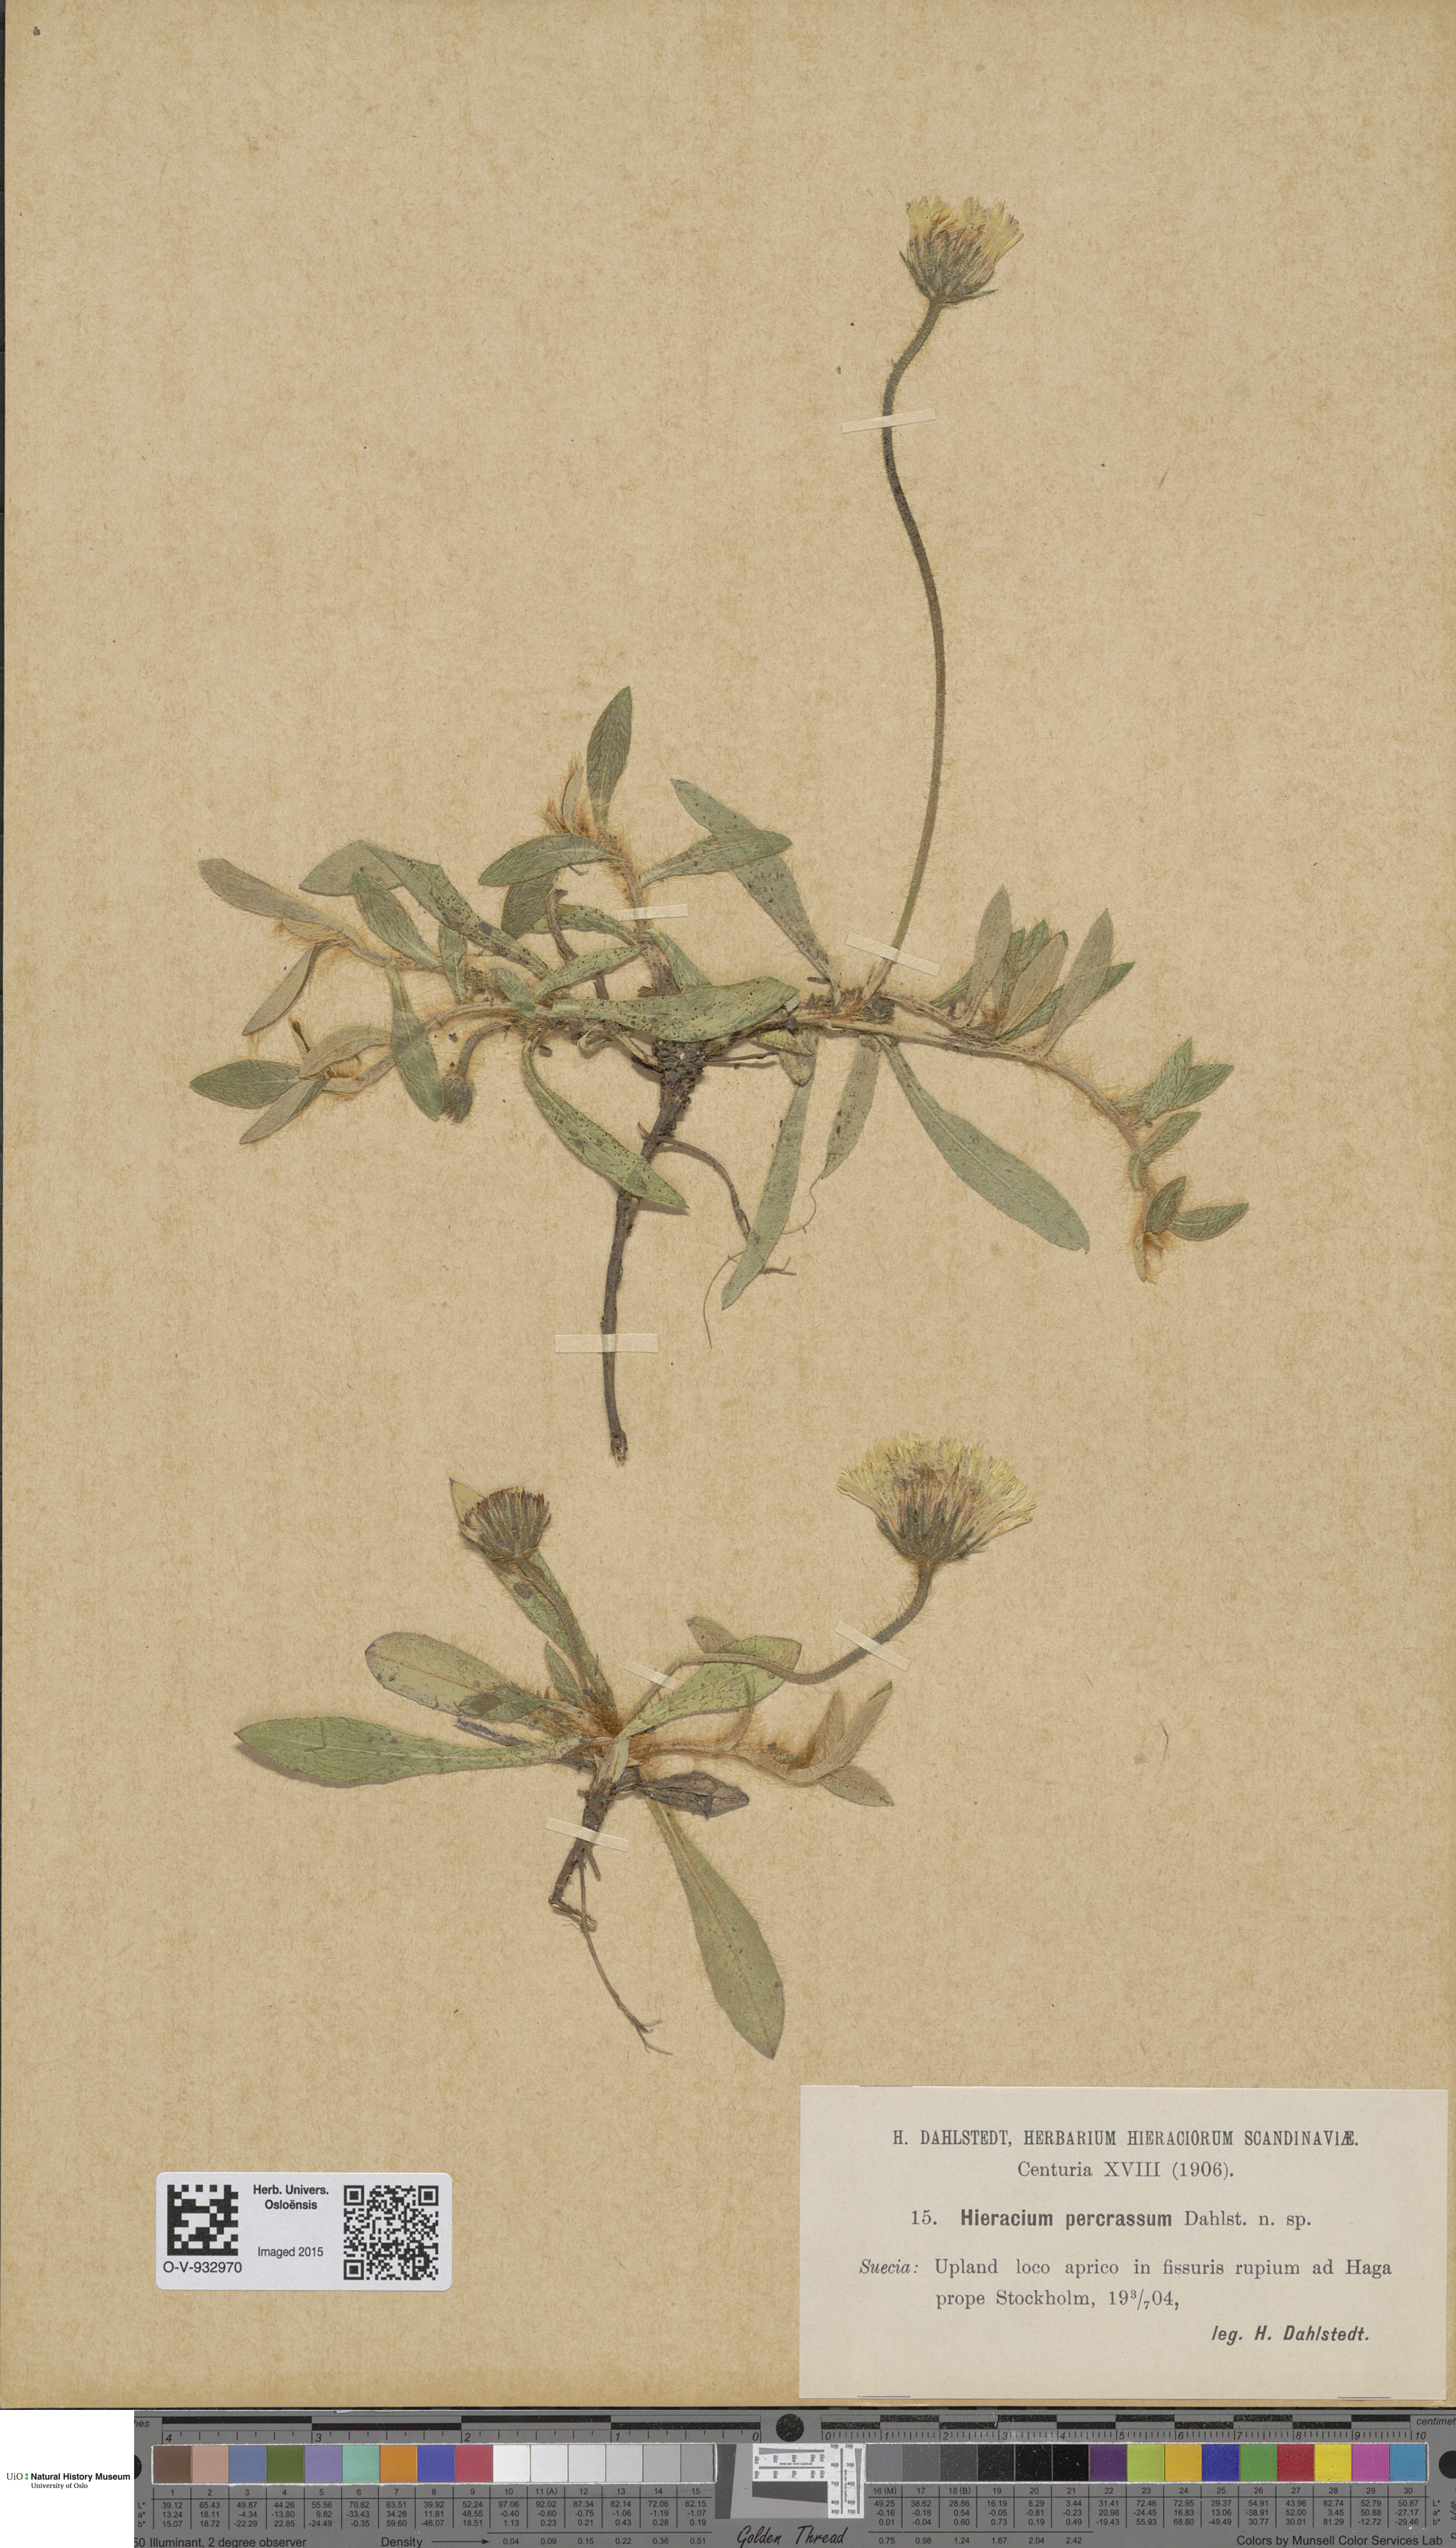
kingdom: Plantae
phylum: Tracheophyta
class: Magnoliopsida
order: Asterales
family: Asteraceae
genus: Hieracium
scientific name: Hieracium
